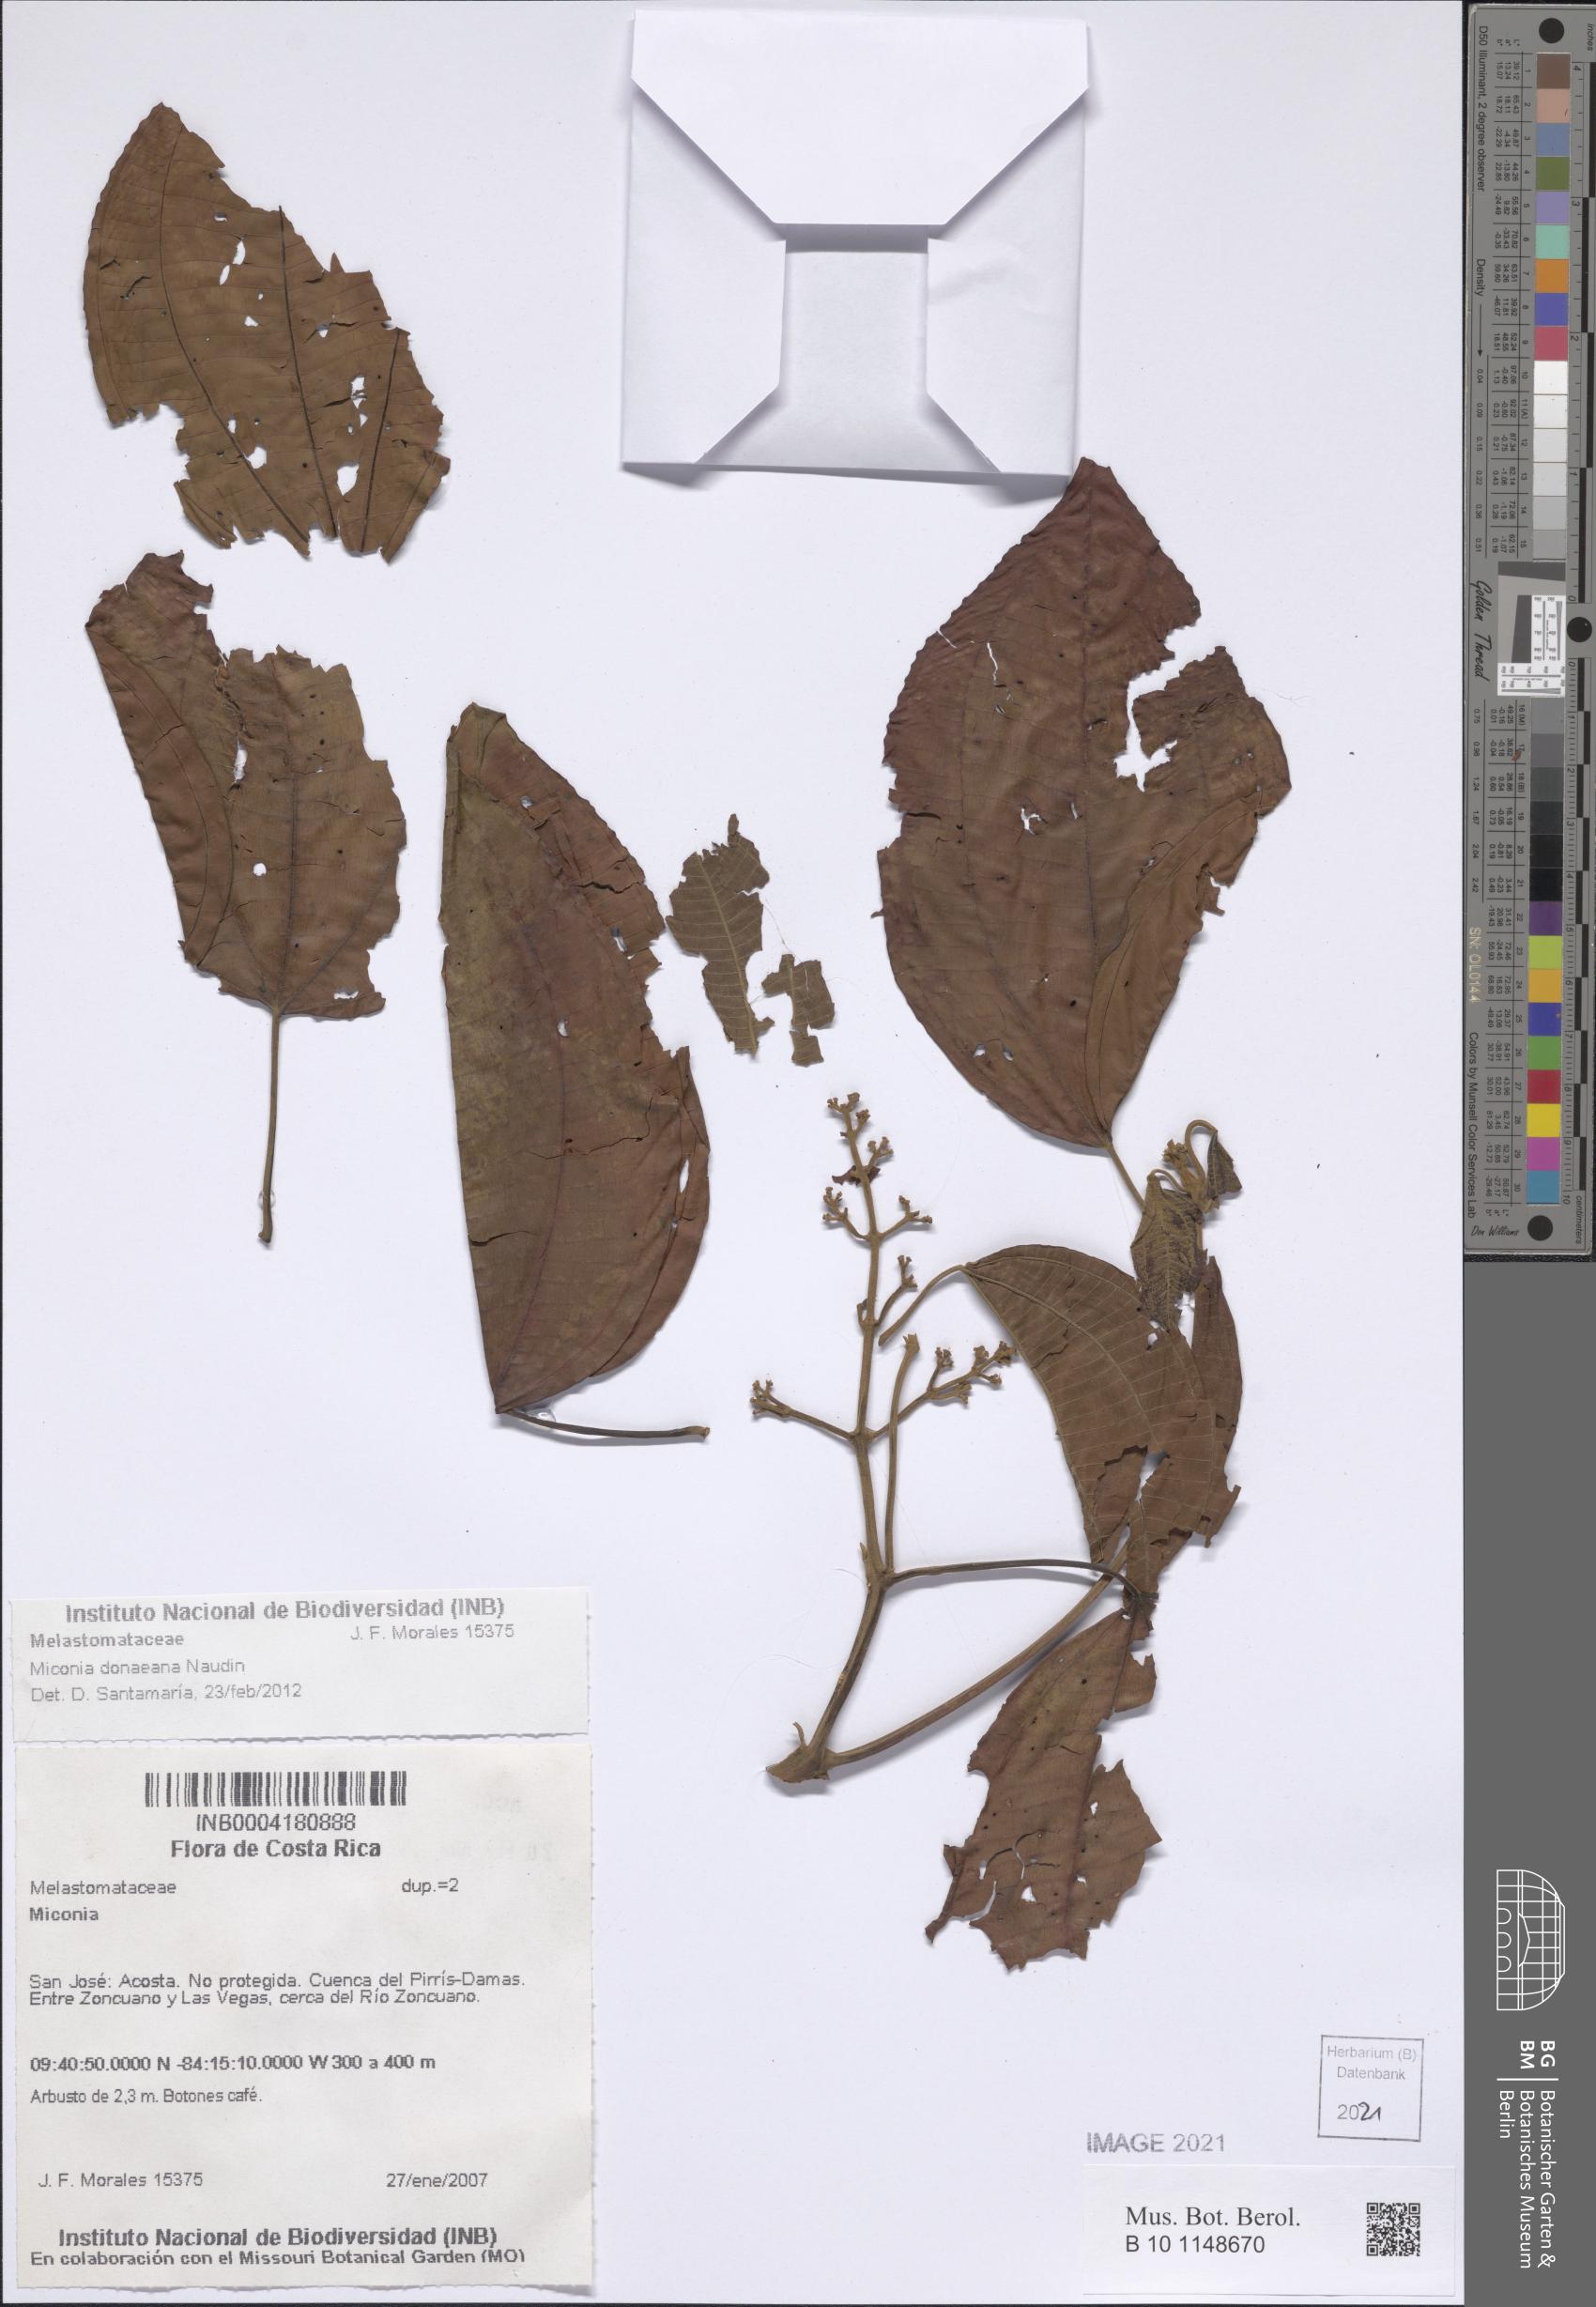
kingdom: Plantae
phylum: Tracheophyta
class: Magnoliopsida
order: Myrtales
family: Melastomataceae
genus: Miconia
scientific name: Miconia donaeana
